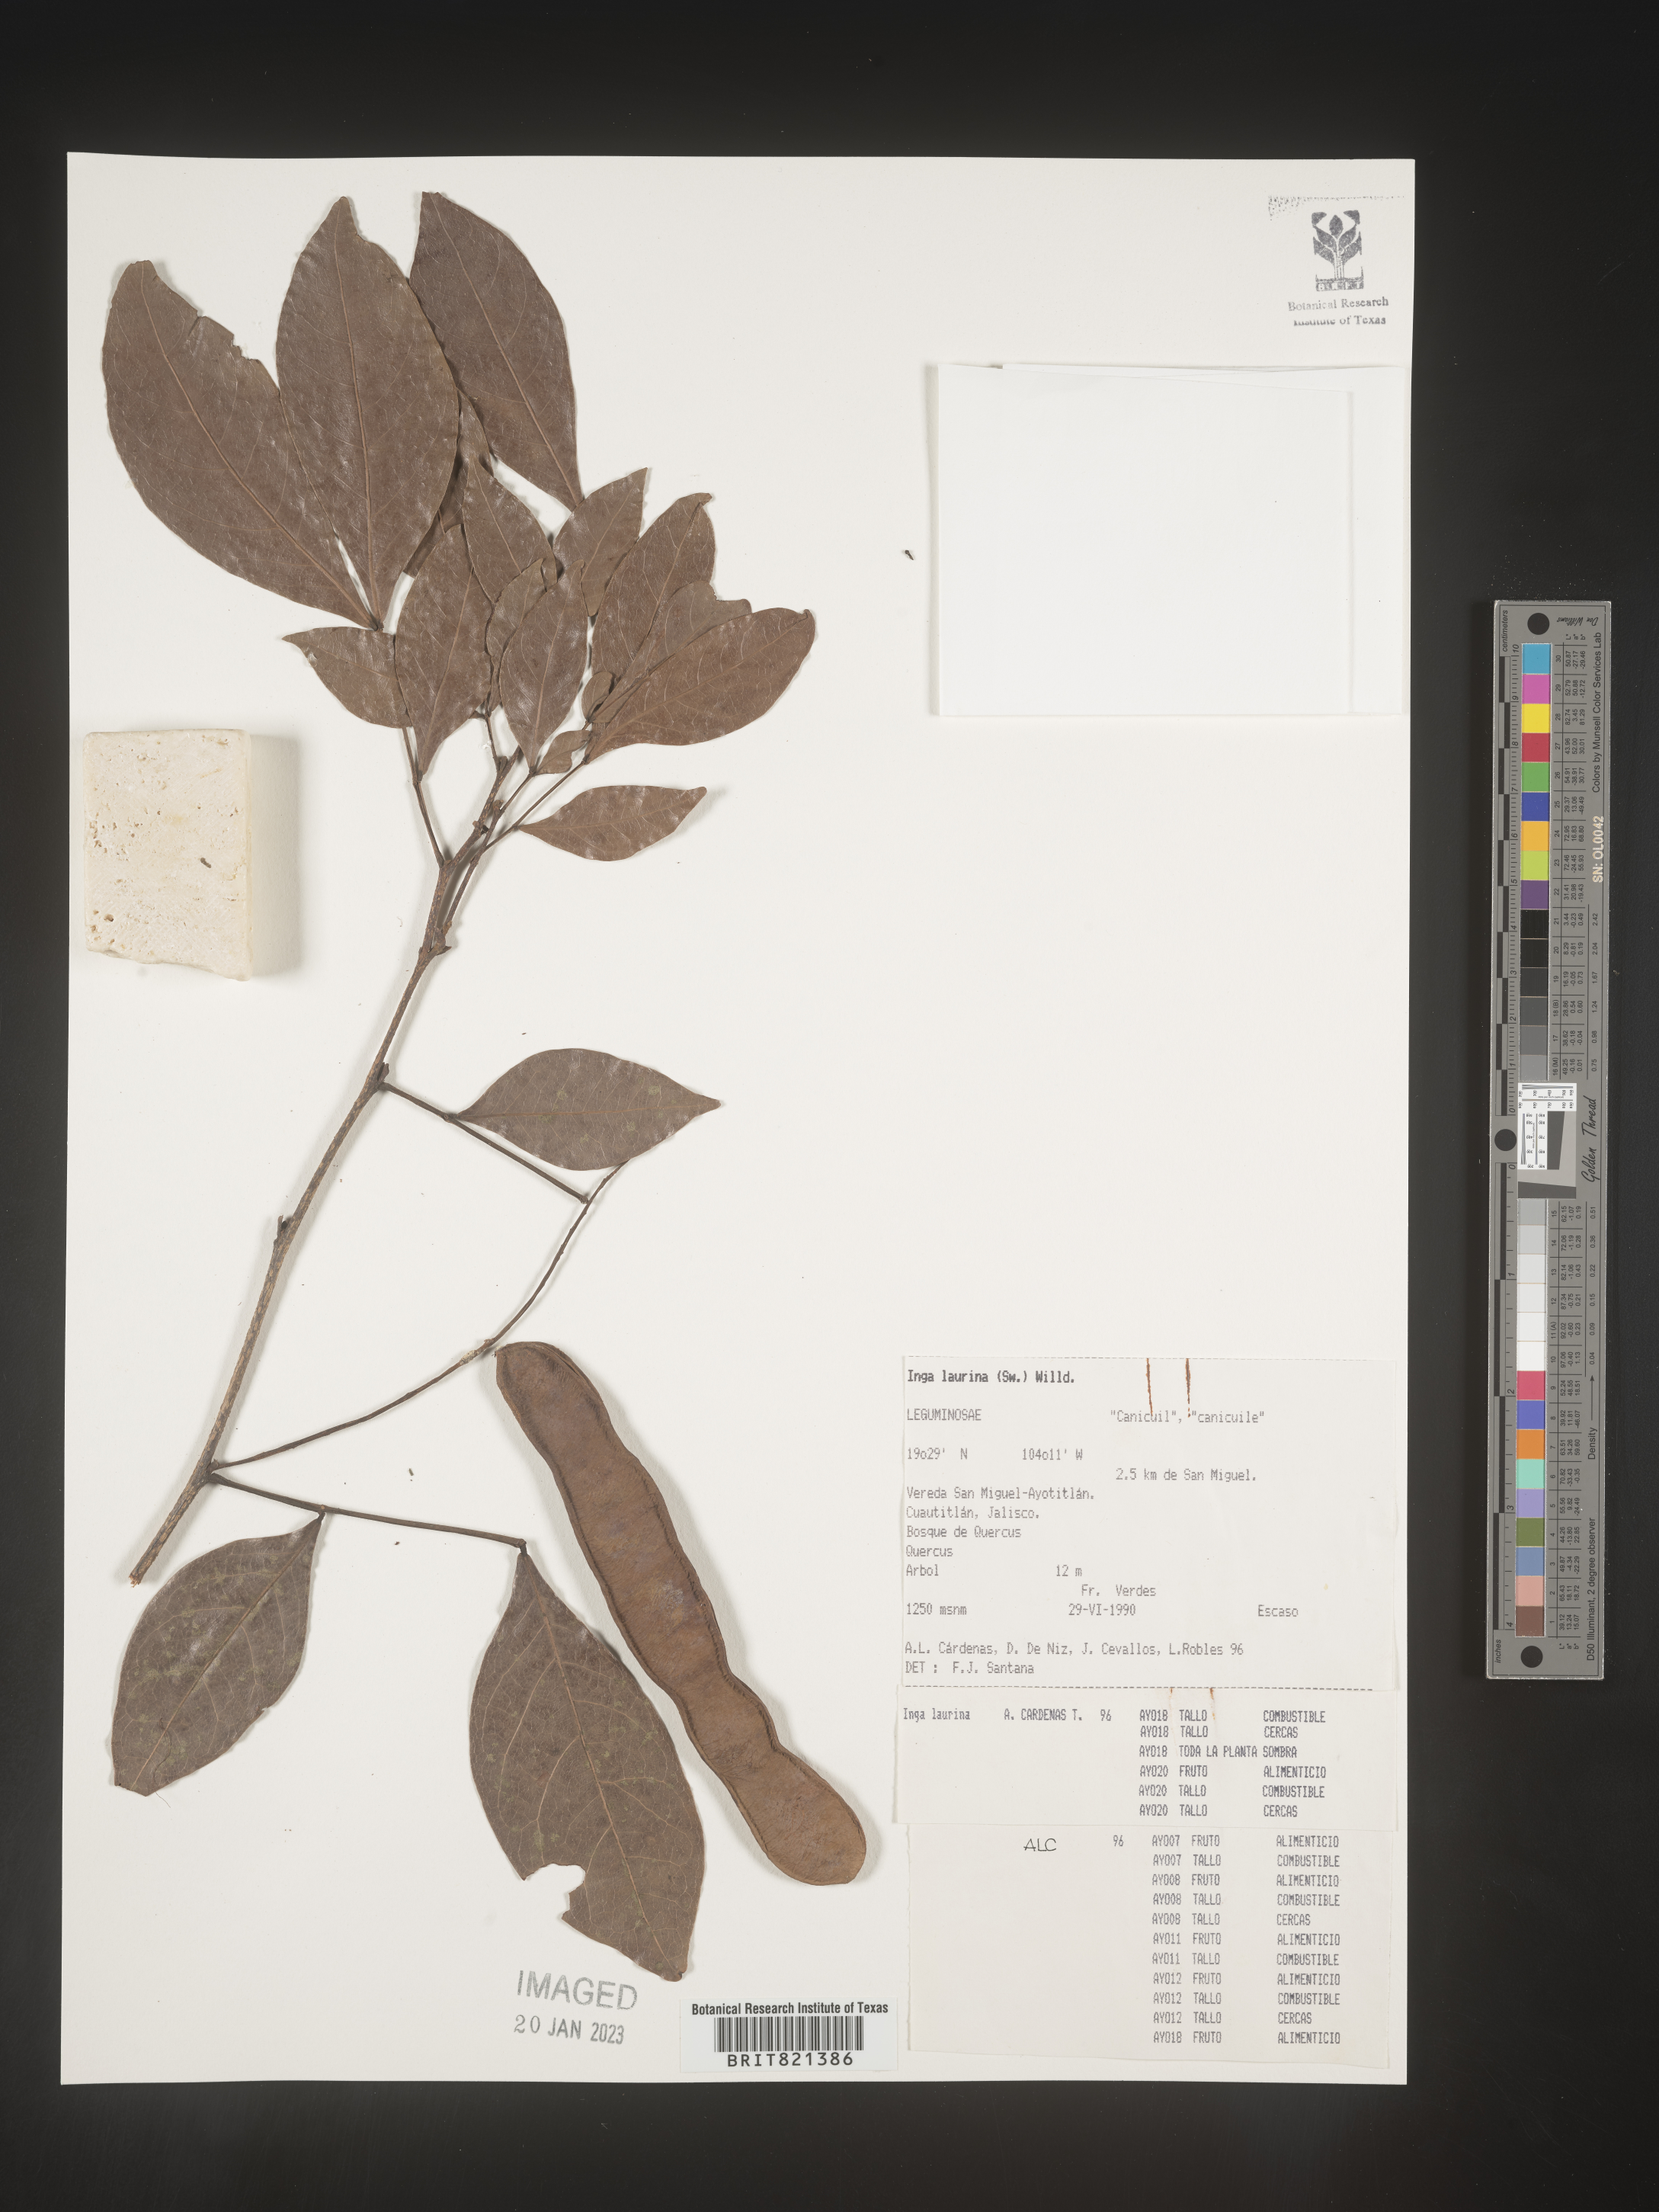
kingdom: Plantae
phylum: Tracheophyta
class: Magnoliopsida
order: Fabales
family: Fabaceae
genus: Inga
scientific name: Inga
